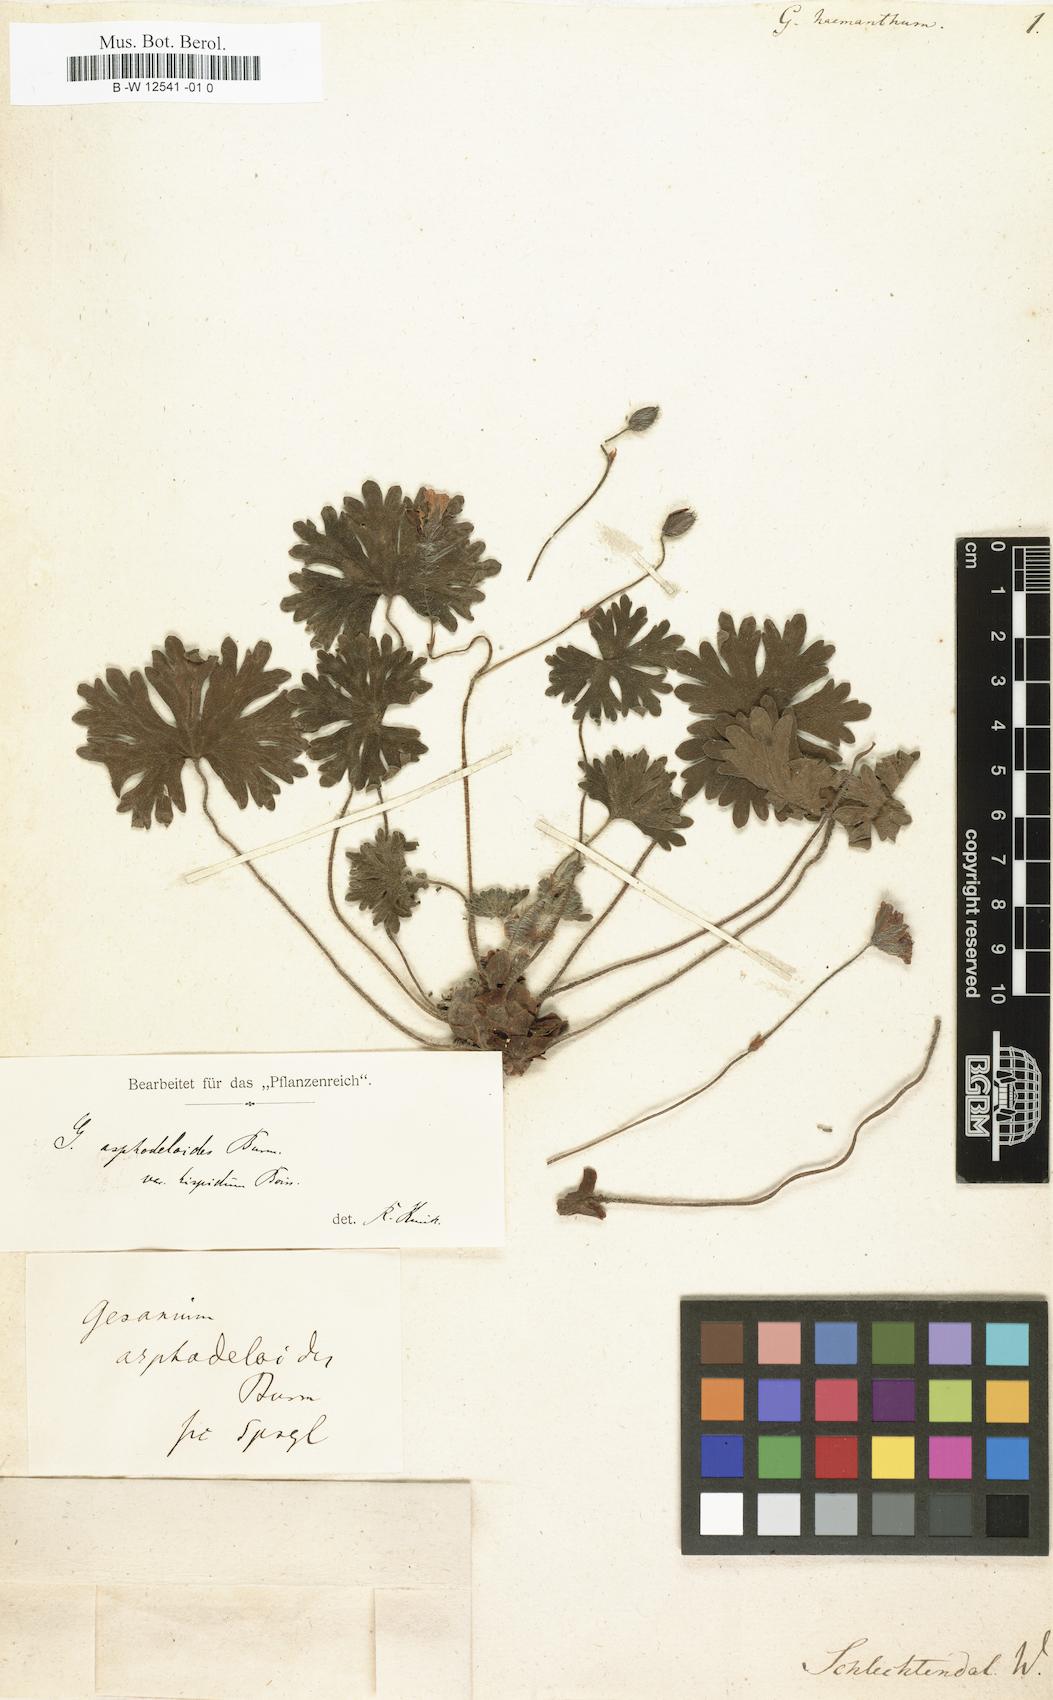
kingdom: Plantae
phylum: Tracheophyta
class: Magnoliopsida
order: Geraniales
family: Geraniaceae
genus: Geranium
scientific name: Geranium asphodeloides
